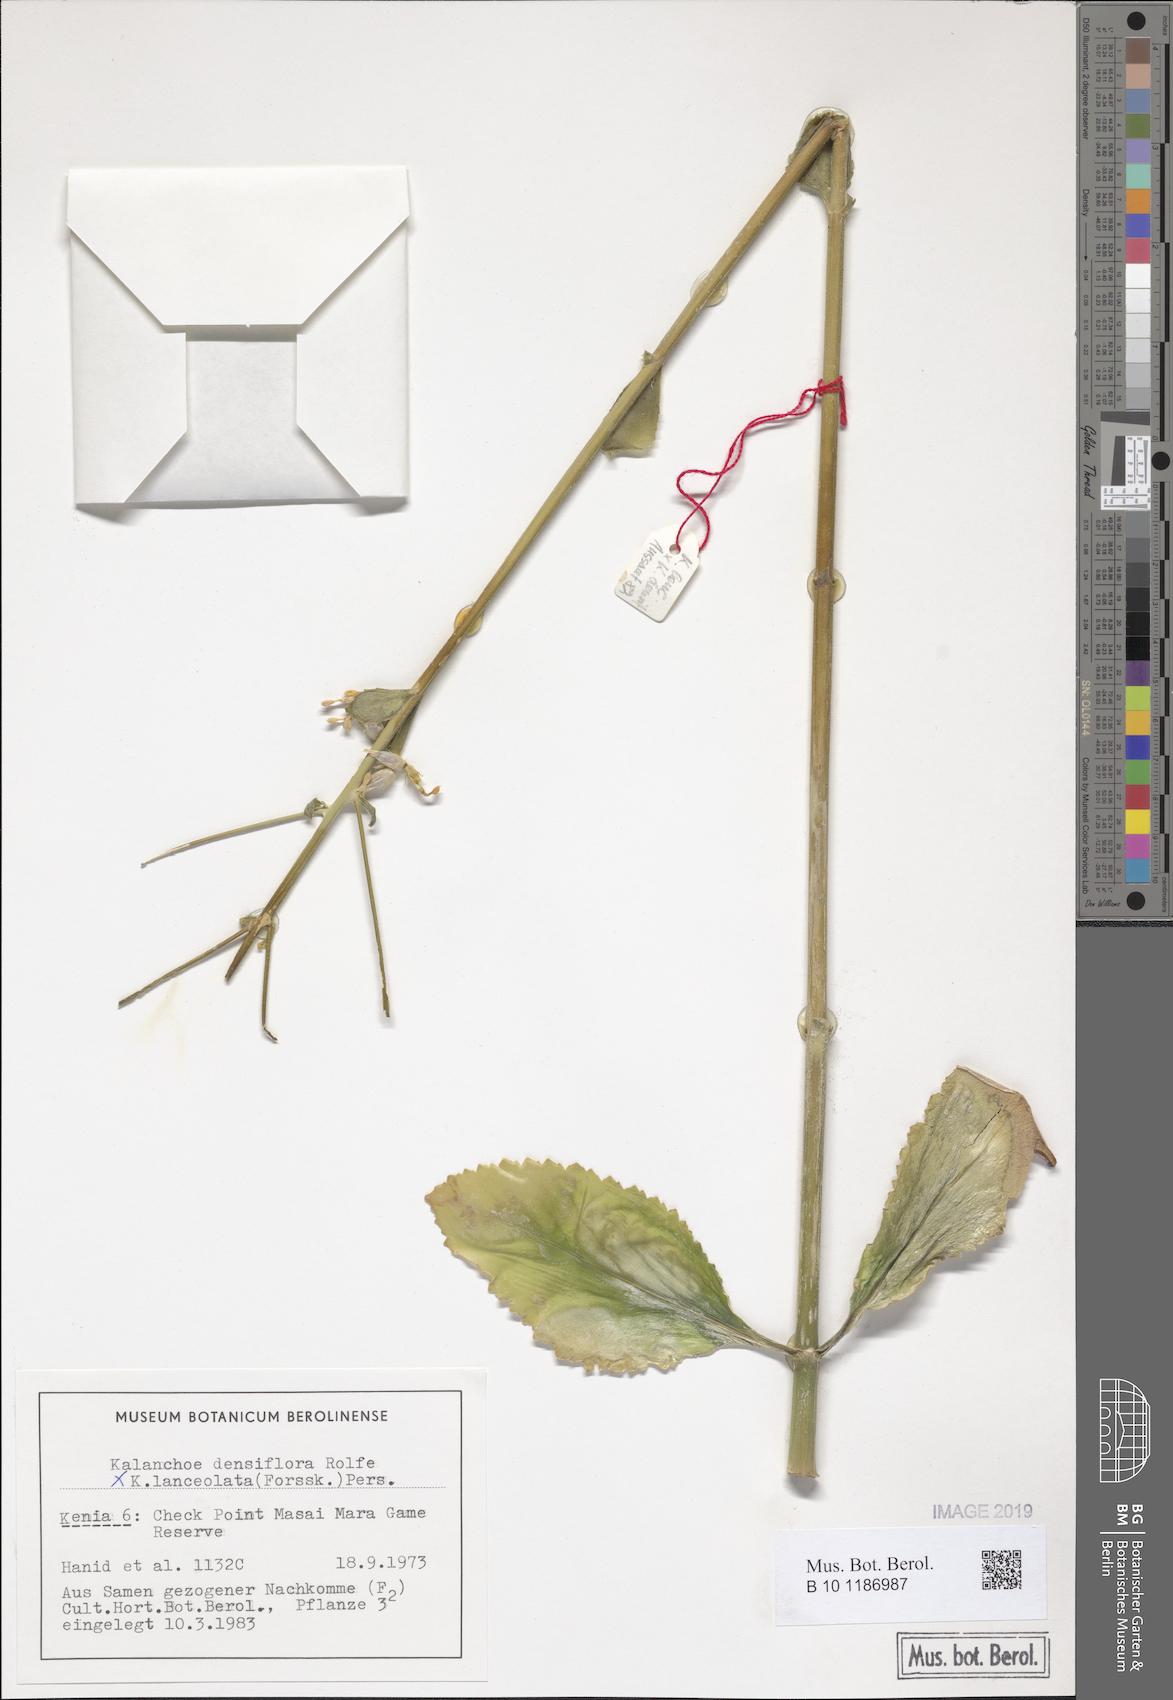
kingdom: Plantae
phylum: Tracheophyta
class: Magnoliopsida
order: Saxifragales
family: Crassulaceae
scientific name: Crassulaceae
